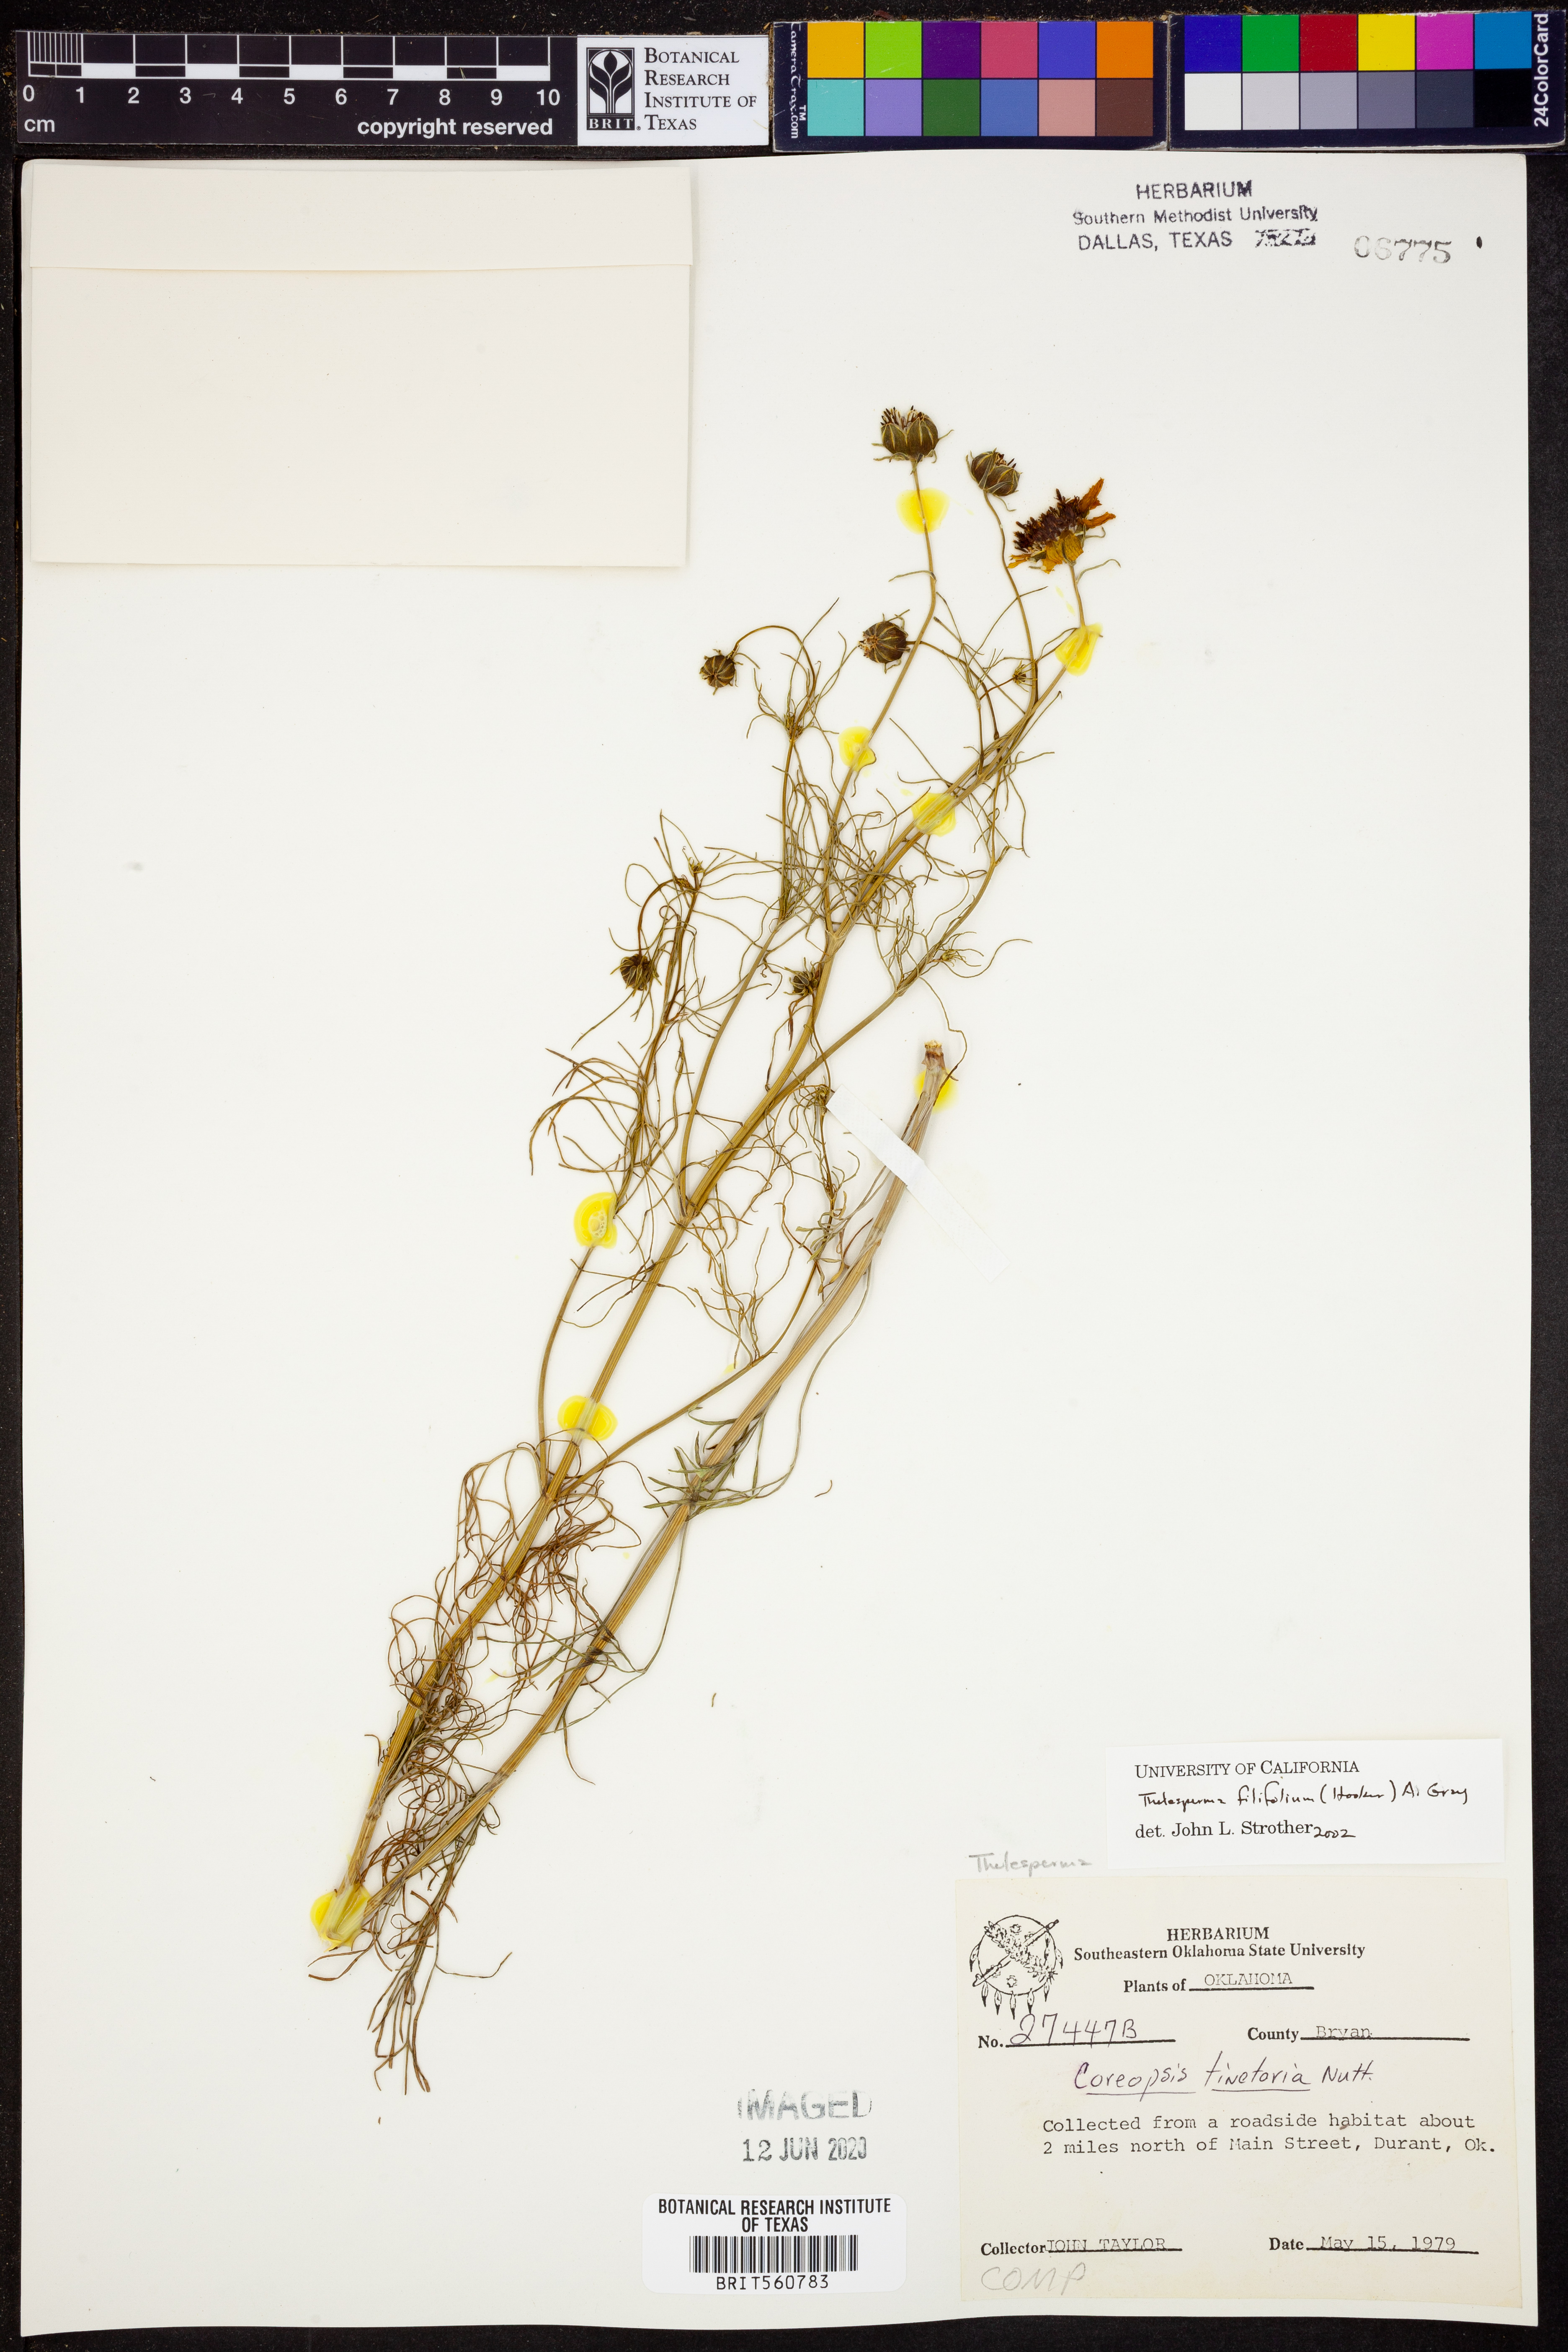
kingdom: Plantae
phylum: Tracheophyta
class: Magnoliopsida
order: Asterales
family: Asteraceae
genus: Thelesperma
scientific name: Thelesperma filifolium
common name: Stiff greenthread
